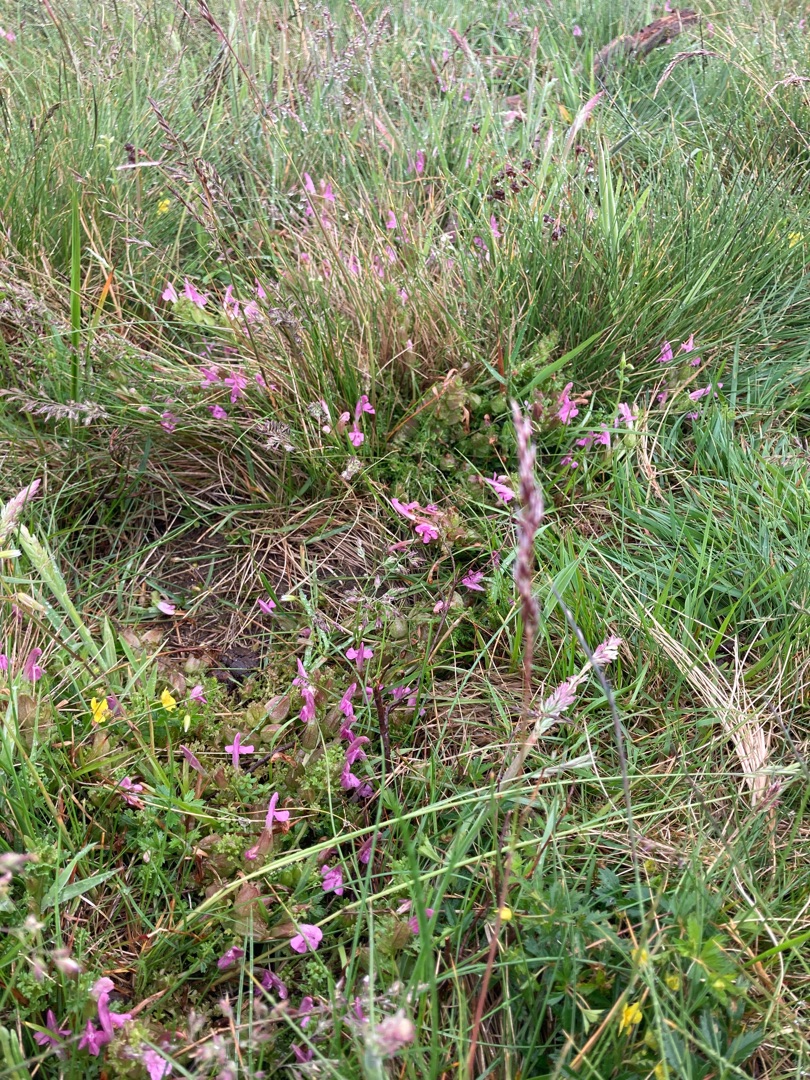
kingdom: Plantae
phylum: Tracheophyta
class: Magnoliopsida
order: Lamiales
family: Orobanchaceae
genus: Pedicularis
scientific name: Pedicularis sylvatica
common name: Mose-troldurt
